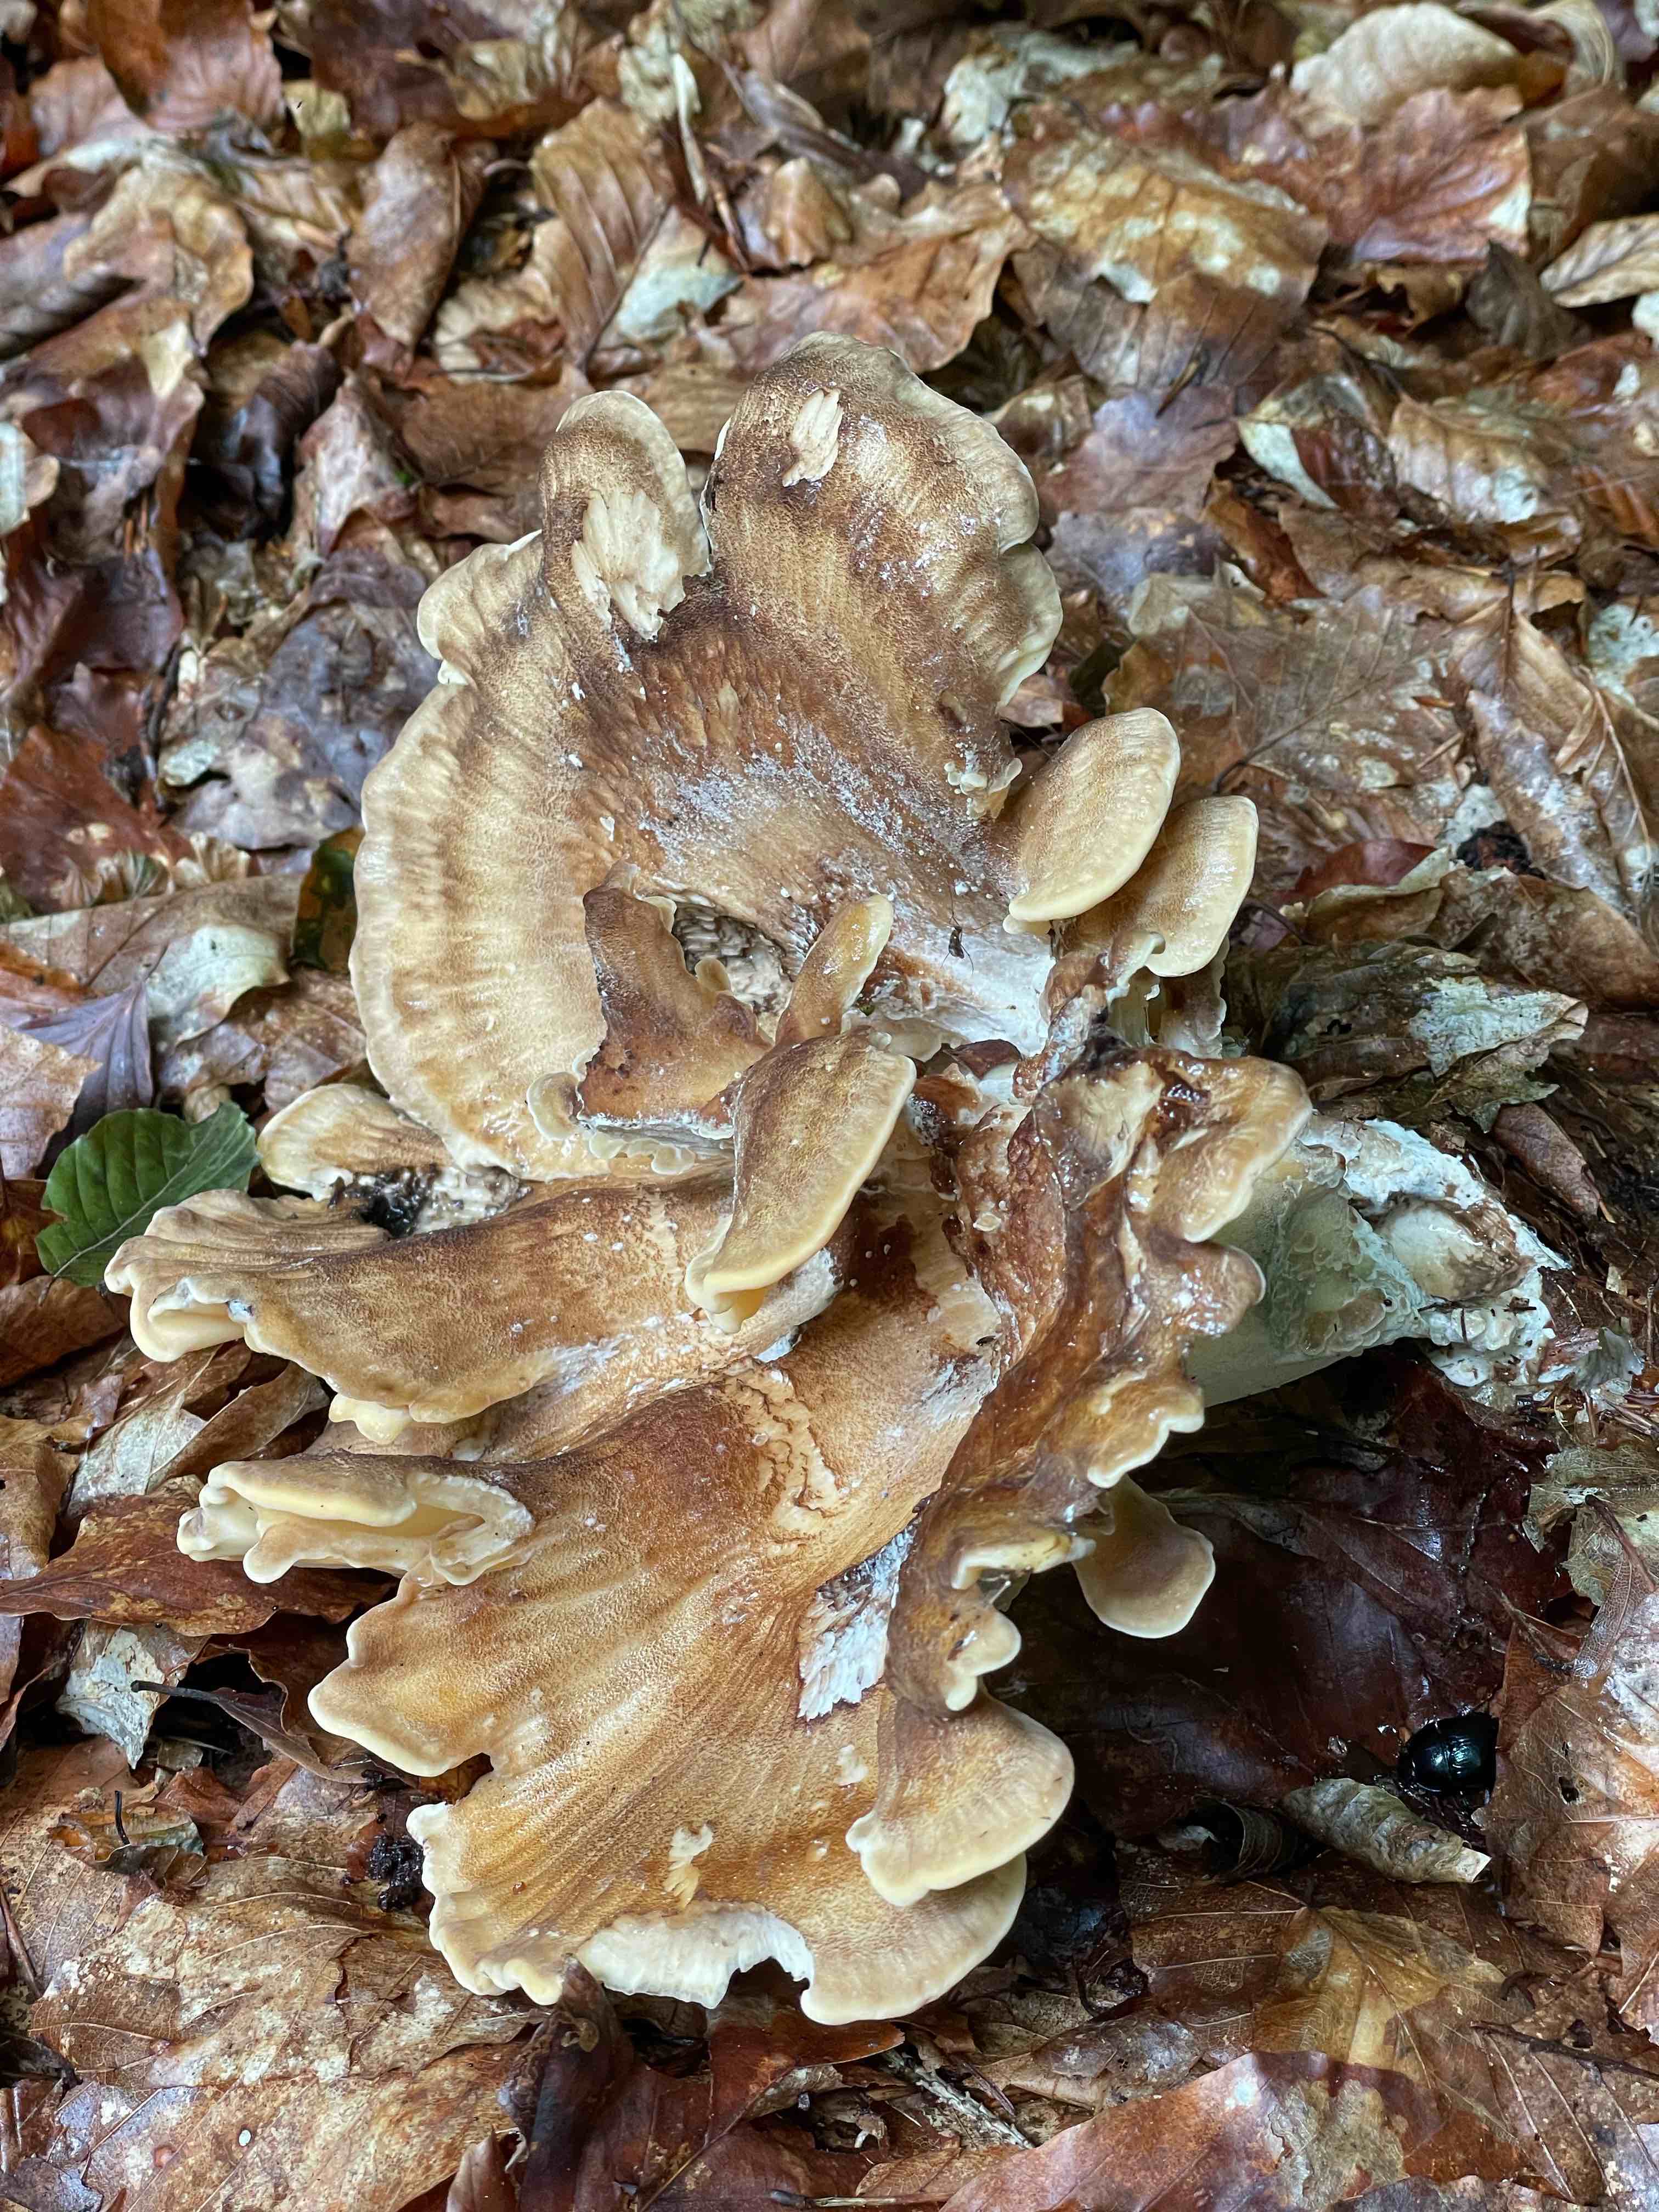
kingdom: Fungi
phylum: Basidiomycota
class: Agaricomycetes
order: Polyporales
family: Meripilaceae
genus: Meripilus
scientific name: Meripilus giganteus
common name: kæmpeporesvamp
